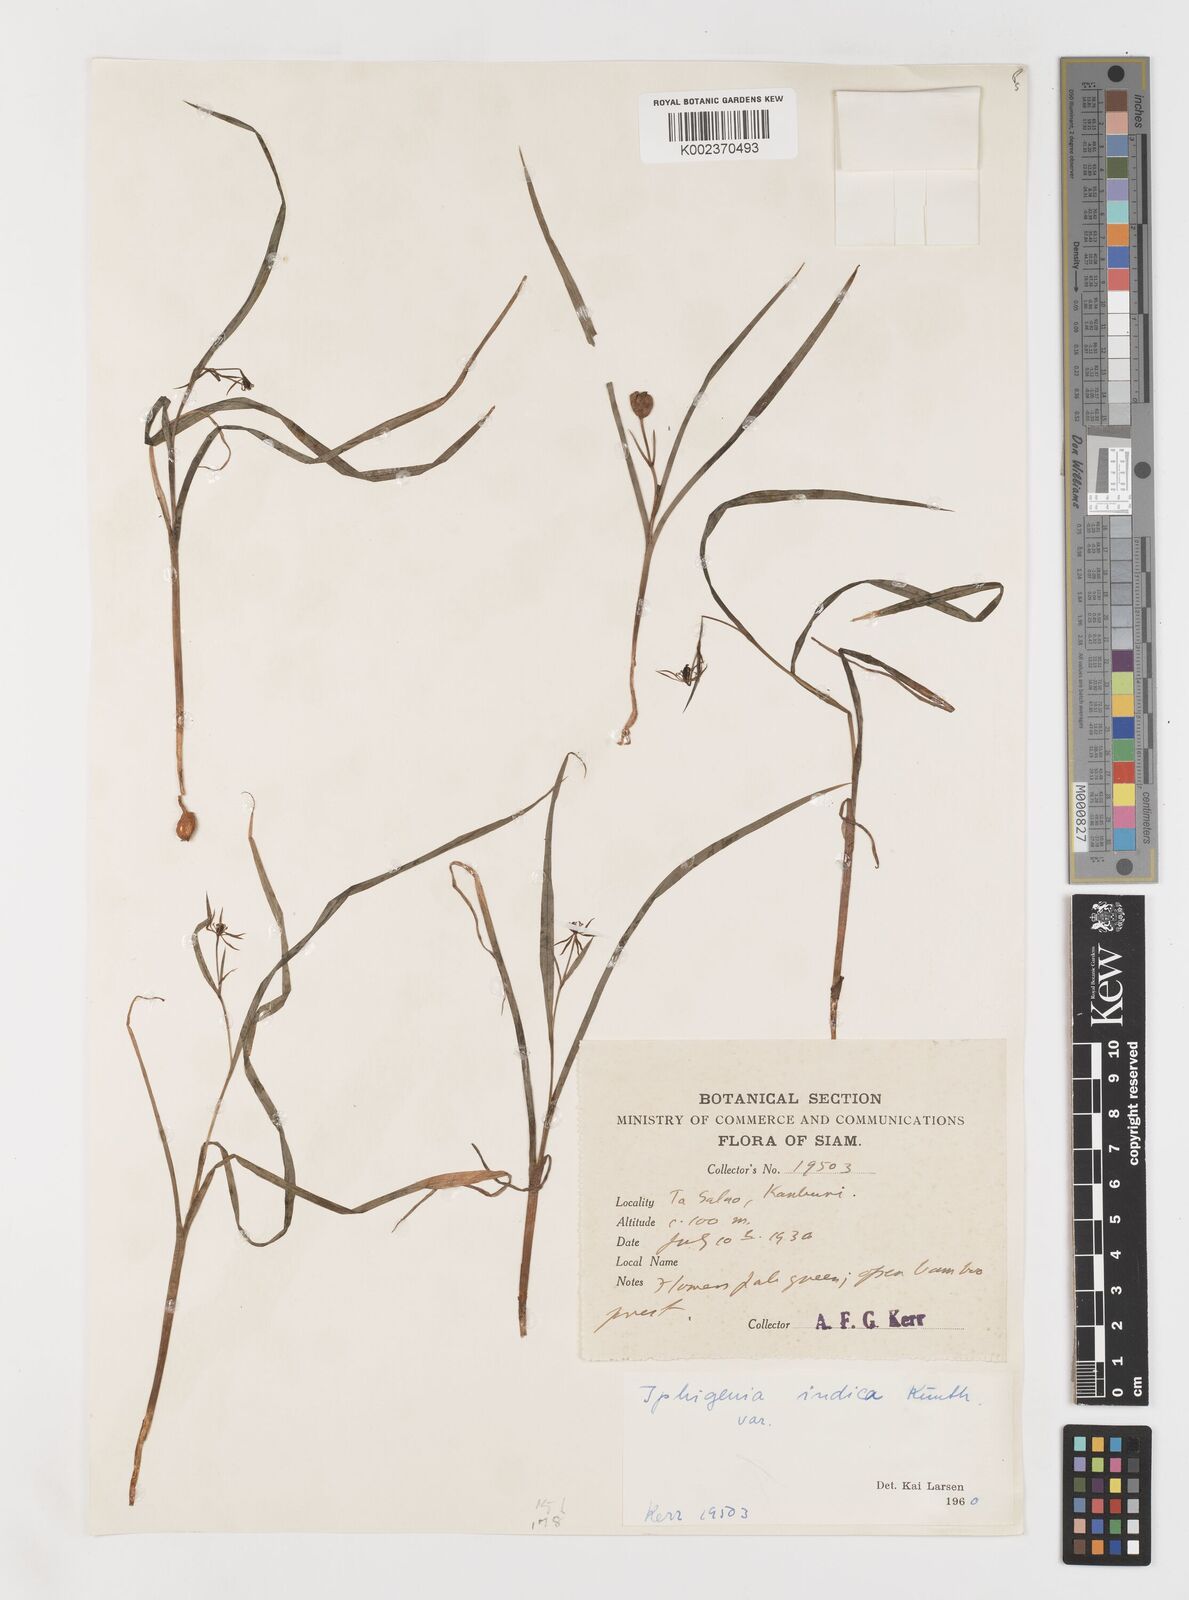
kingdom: Plantae
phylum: Tracheophyta
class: Liliopsida
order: Liliales
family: Colchicaceae
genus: Iphigenia
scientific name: Iphigenia indica
